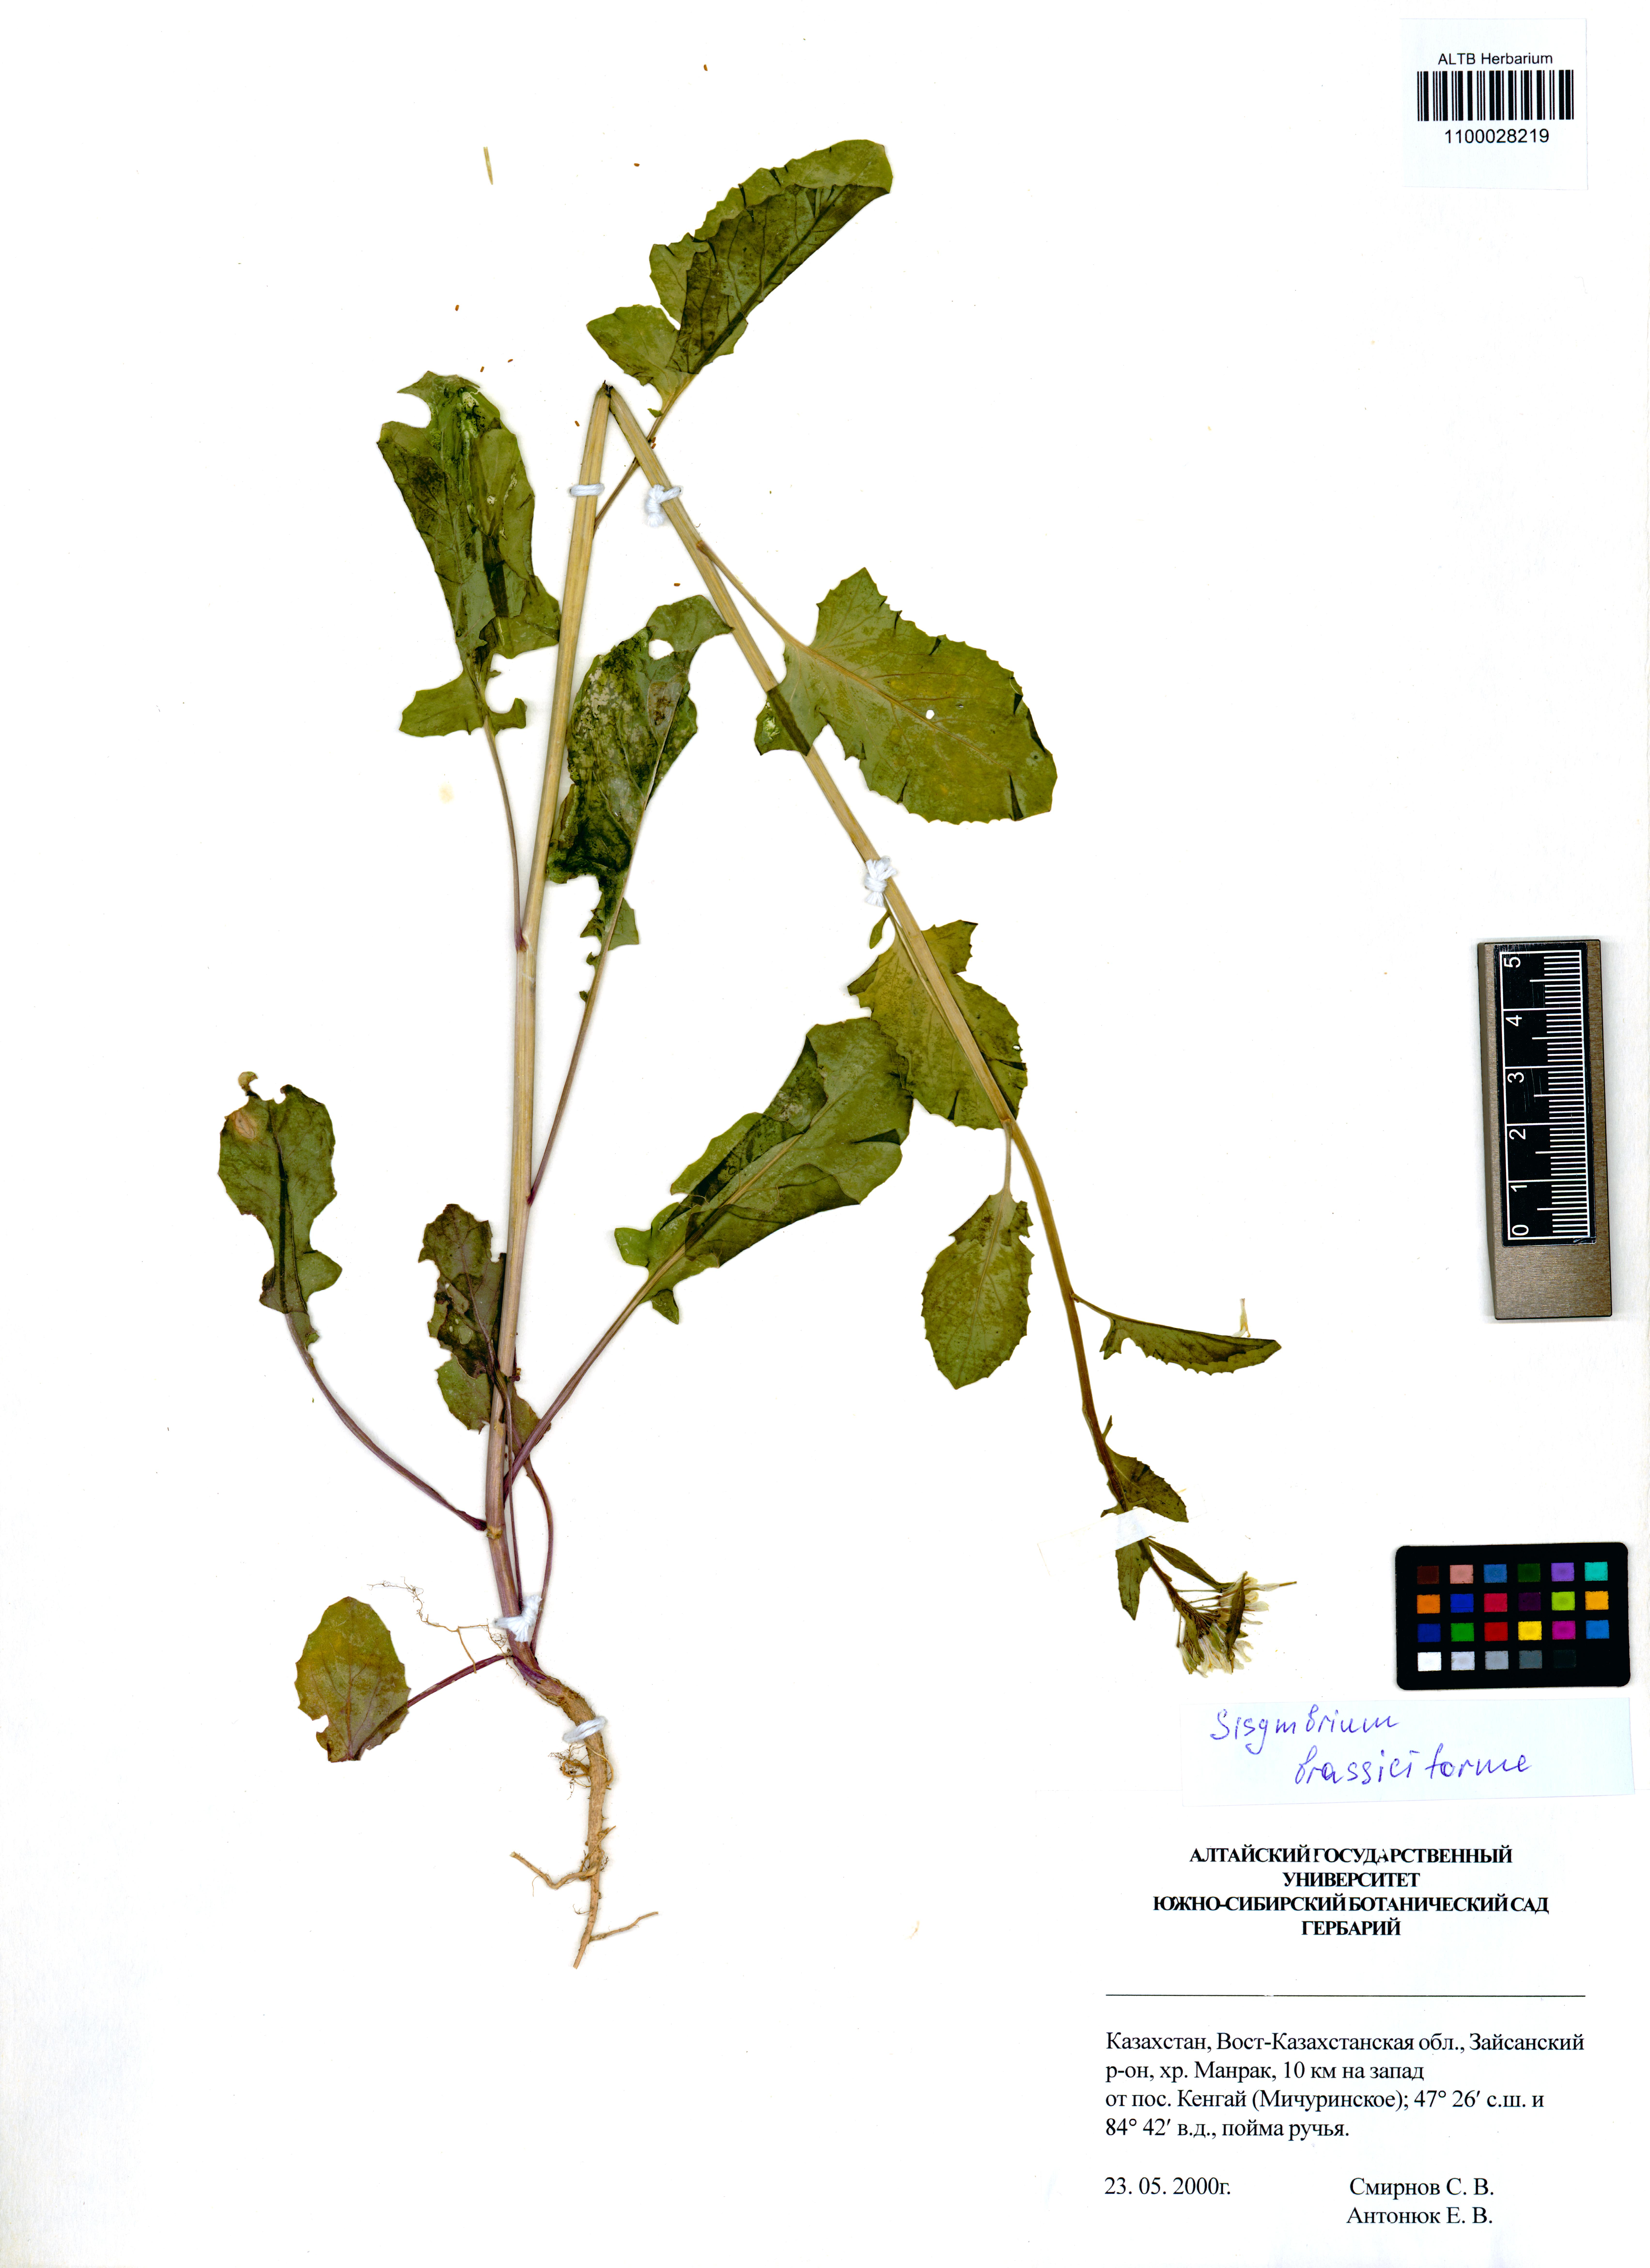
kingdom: Plantae
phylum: Tracheophyta
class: Magnoliopsida
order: Brassicales
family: Brassicaceae
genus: Sisymbrium
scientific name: Sisymbrium brassiciforme
